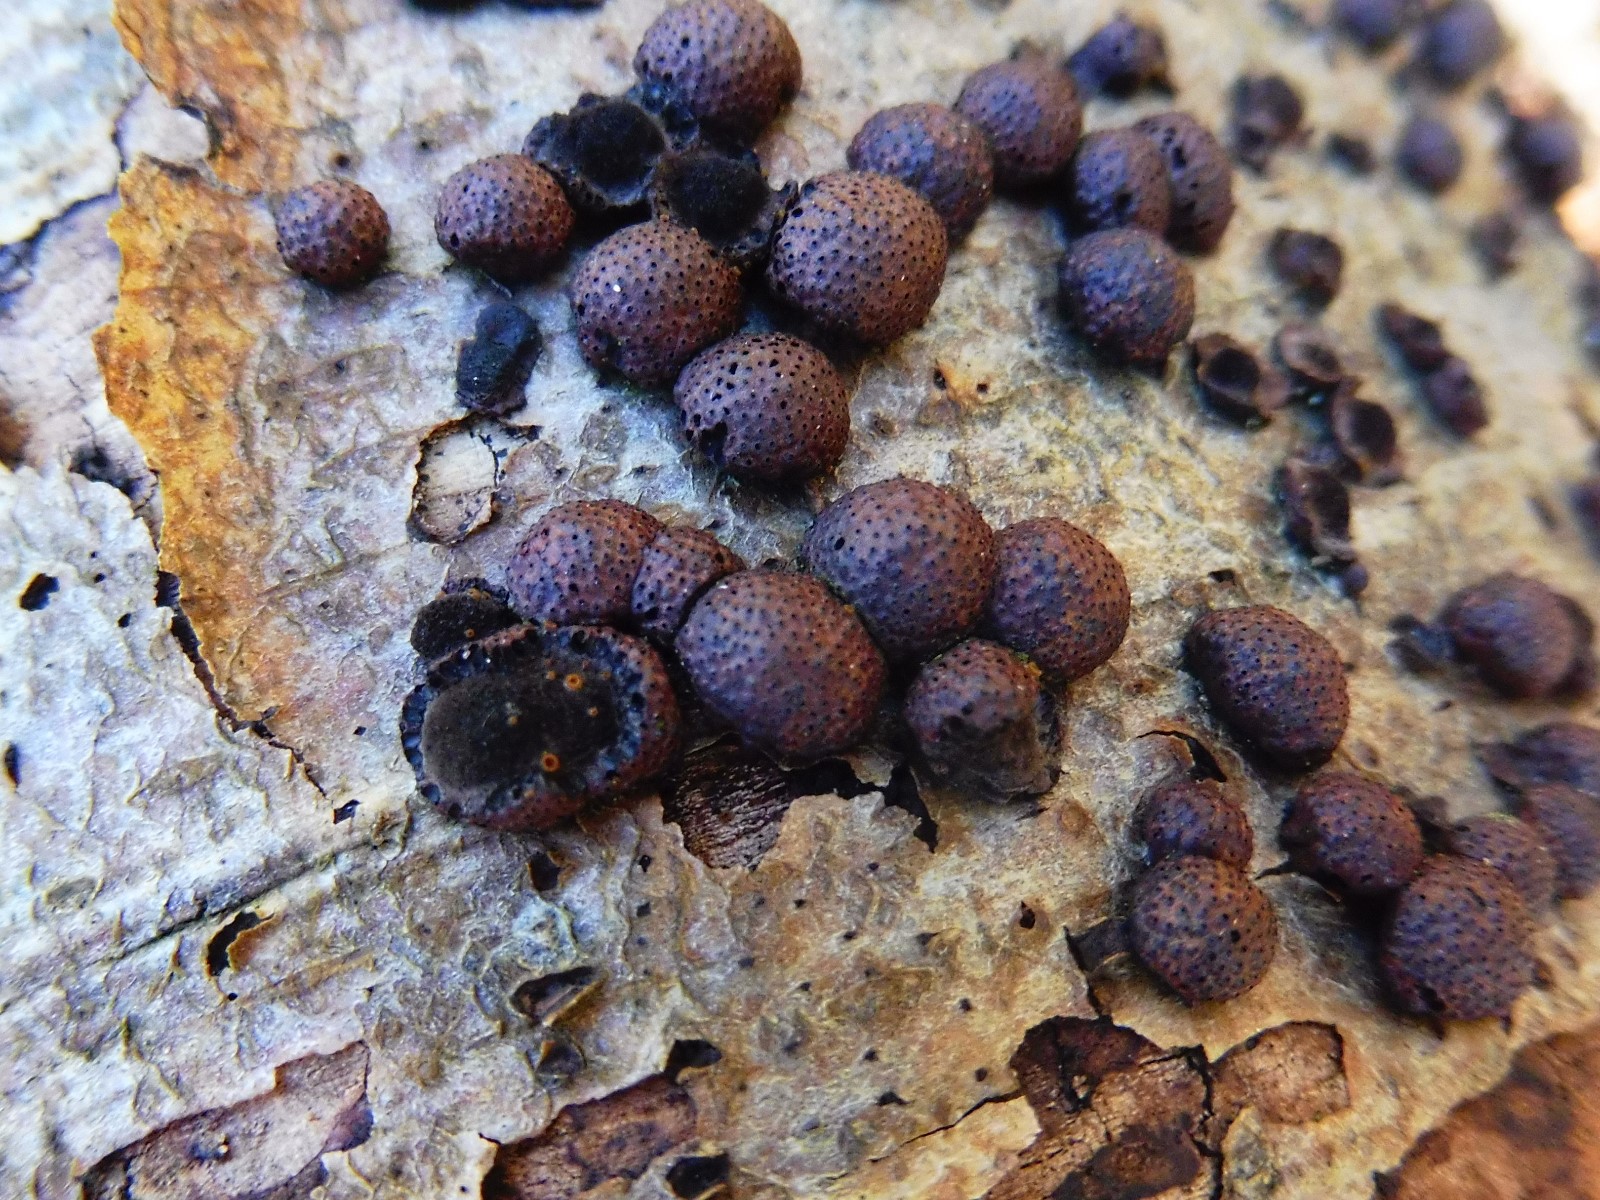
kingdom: Fungi
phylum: Ascomycota
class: Sordariomycetes
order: Xylariales
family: Hypoxylaceae
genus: Hypoxylon
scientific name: Hypoxylon fragiforme
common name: kuljordbær
